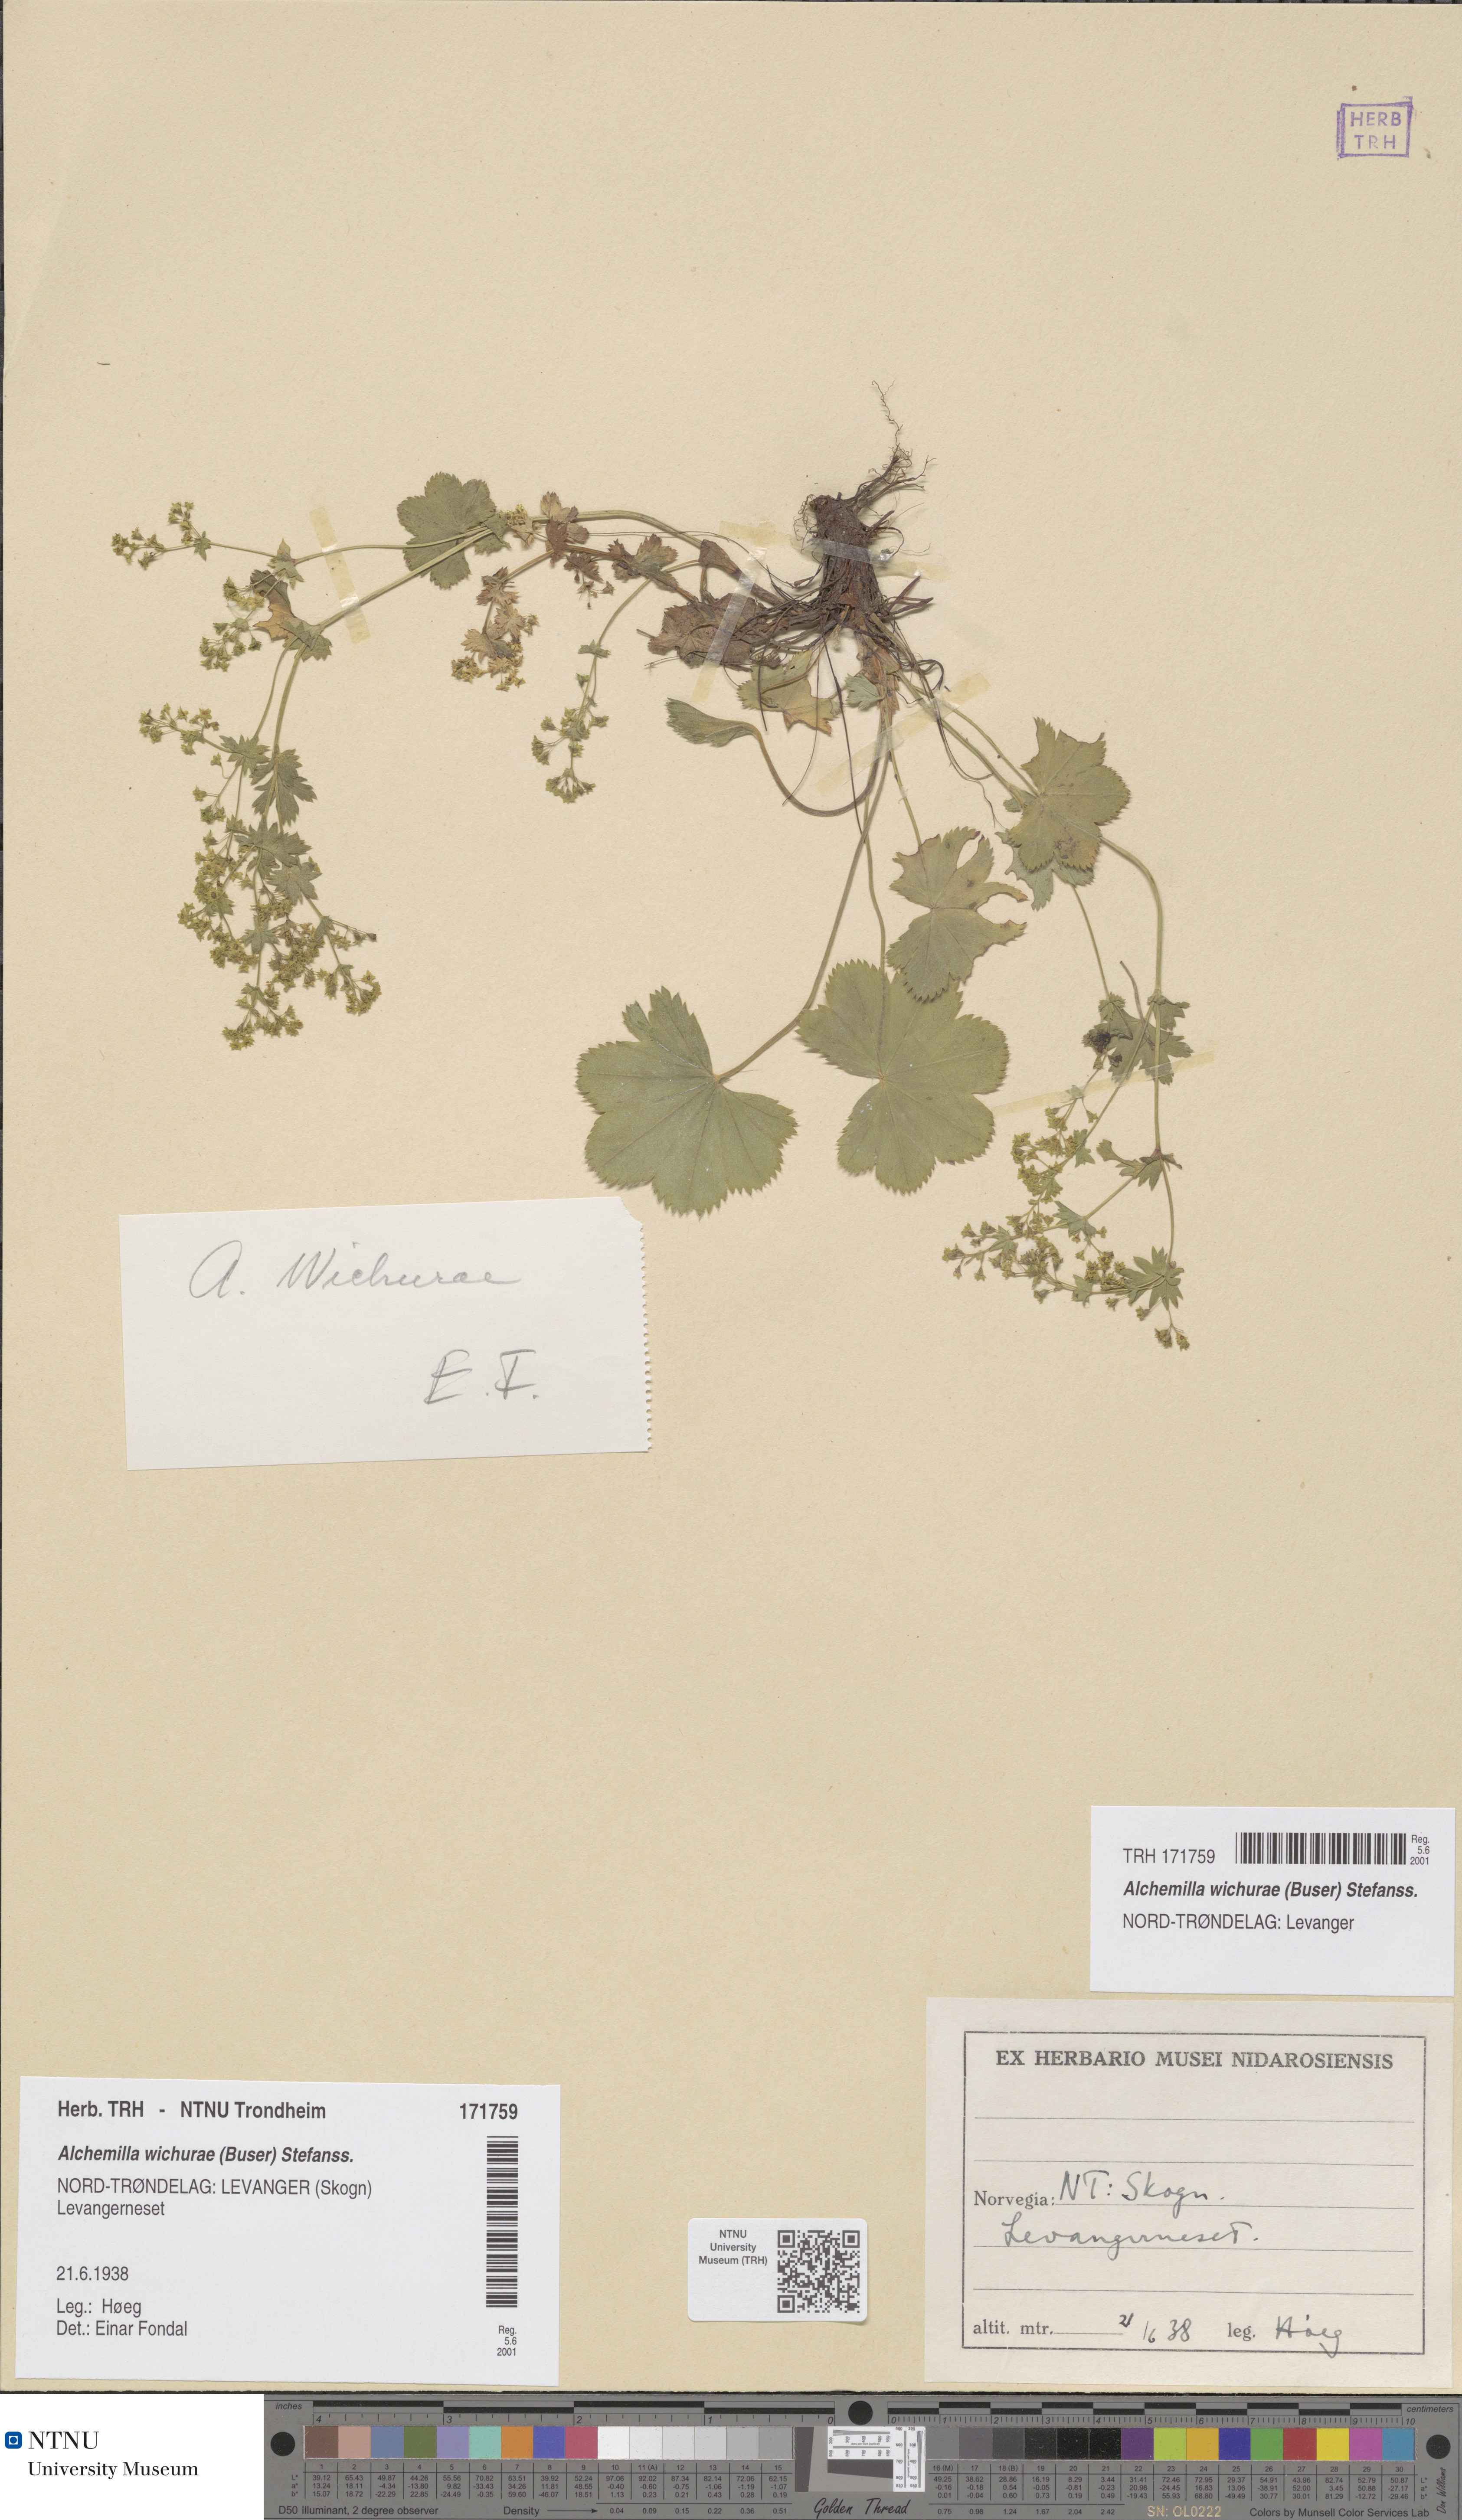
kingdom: Plantae
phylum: Tracheophyta
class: Magnoliopsida
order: Rosales
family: Rosaceae
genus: Alchemilla
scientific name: Alchemilla wichurae
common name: Rock lady's mantle
